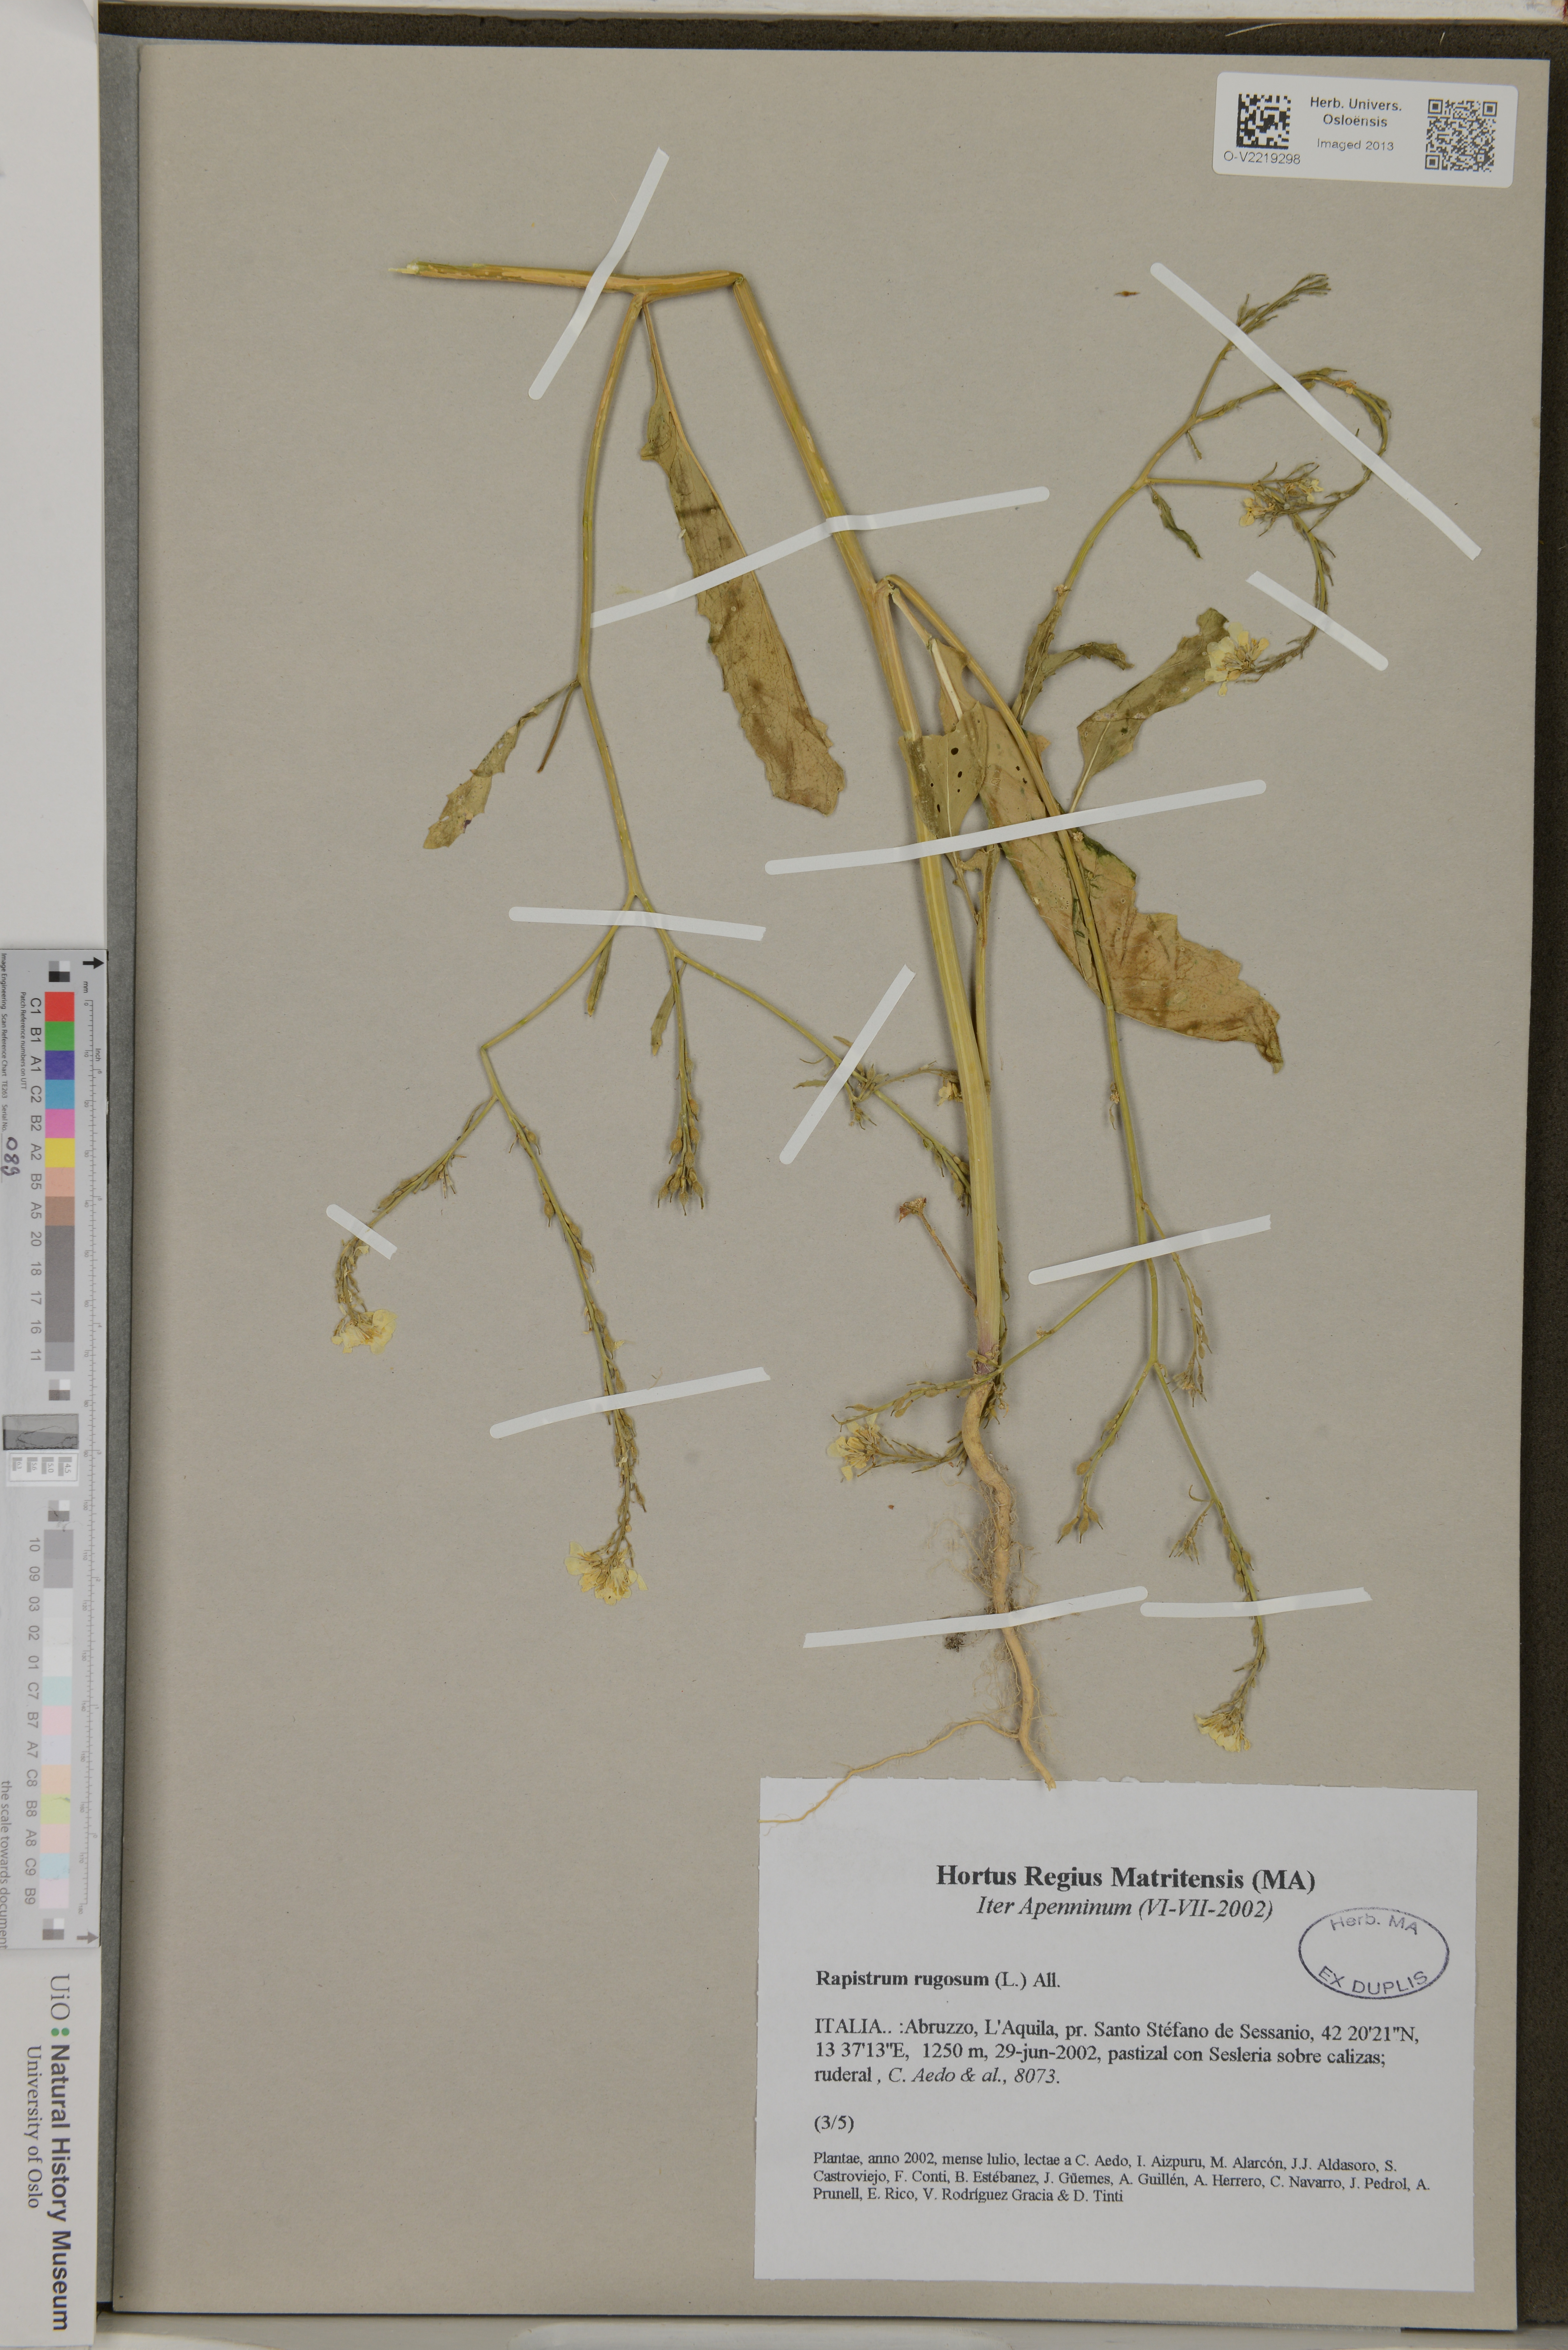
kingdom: Plantae
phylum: Tracheophyta
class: Magnoliopsida
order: Brassicales
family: Brassicaceae
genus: Rapistrum
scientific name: Rapistrum rugosum
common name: Annual bastardcabbage
